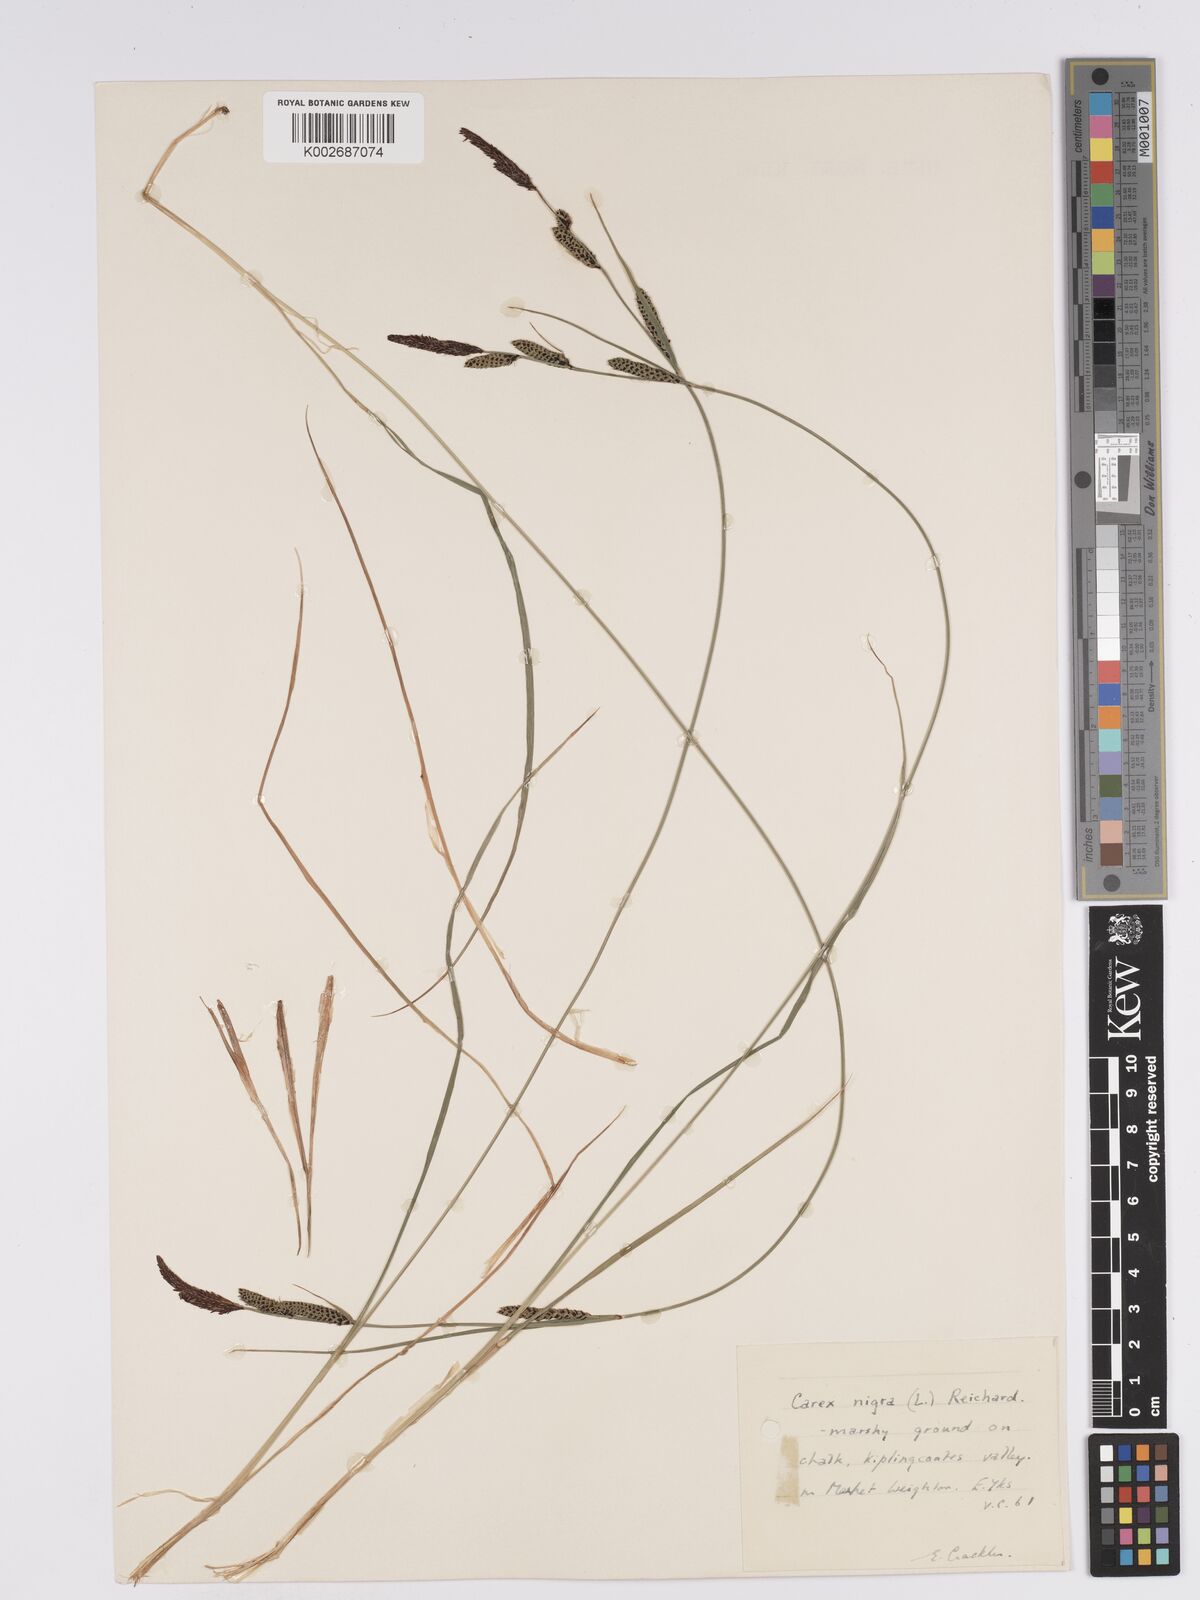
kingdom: Plantae
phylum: Tracheophyta
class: Liliopsida
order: Poales
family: Cyperaceae
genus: Carex
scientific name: Carex nigra
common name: Common sedge
